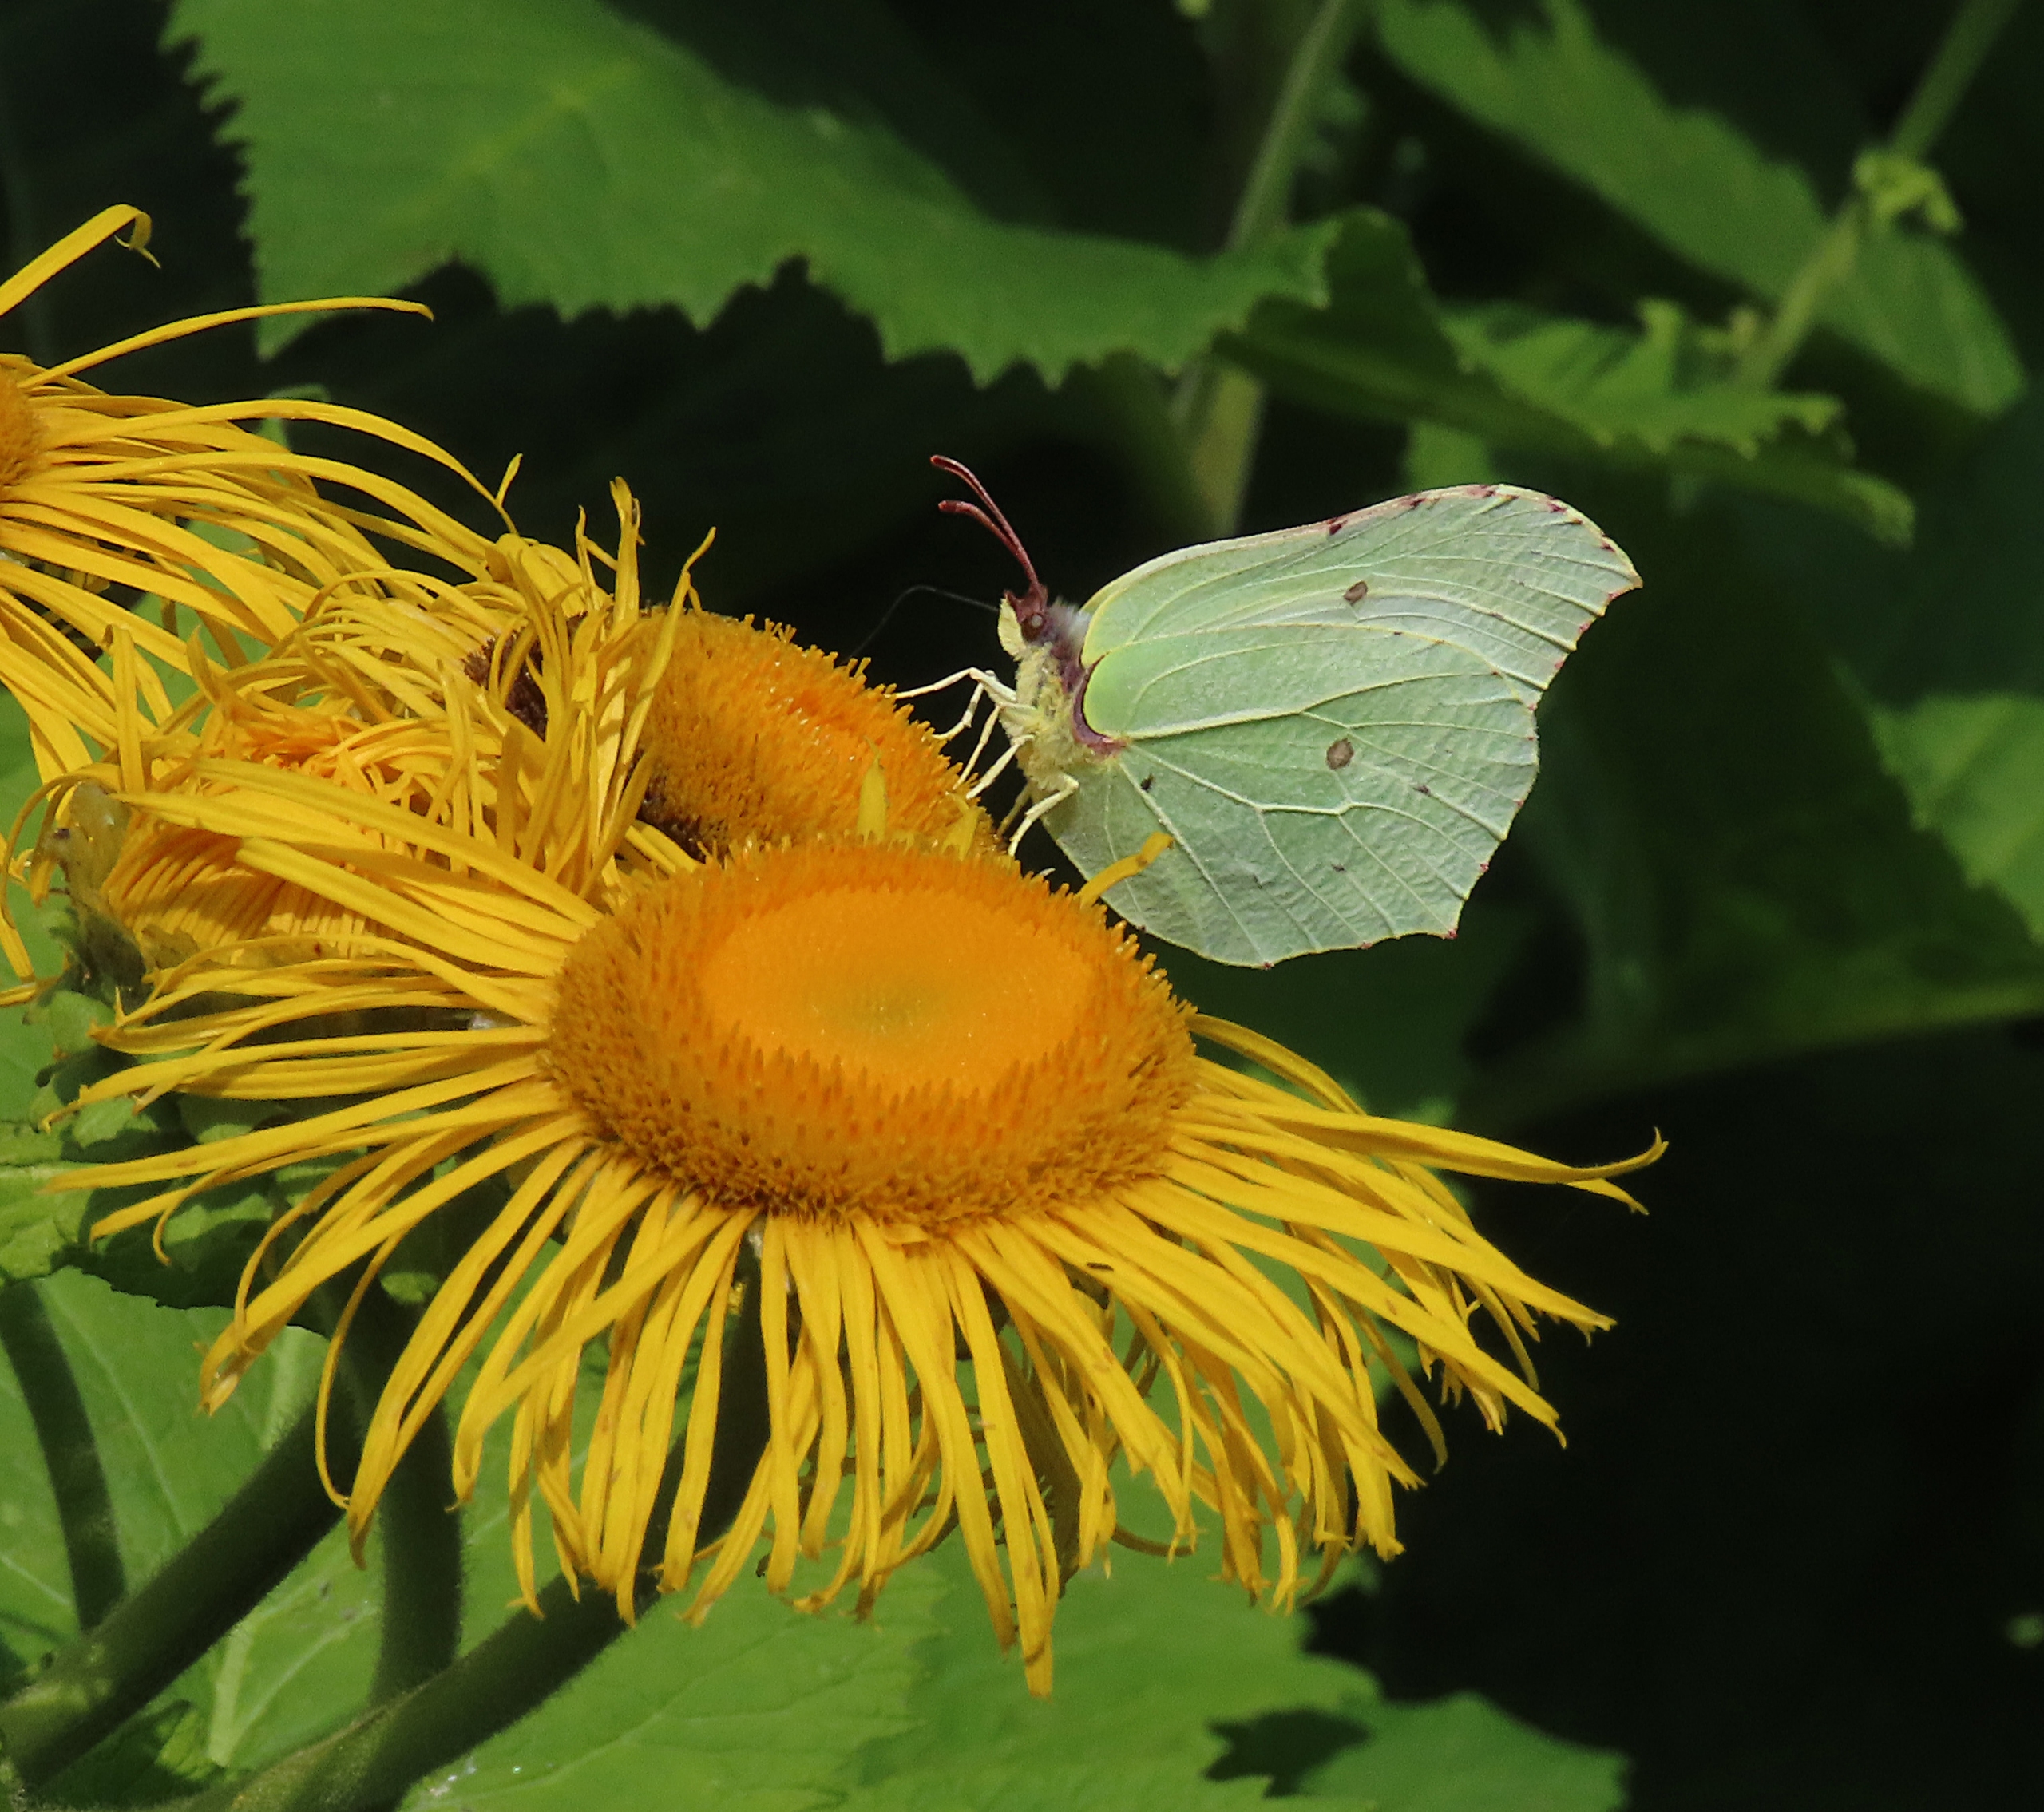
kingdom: Animalia
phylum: Arthropoda
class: Insecta
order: Lepidoptera
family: Pieridae
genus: Gonepteryx
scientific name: Gonepteryx rhamni
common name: Citronsommerfugl
